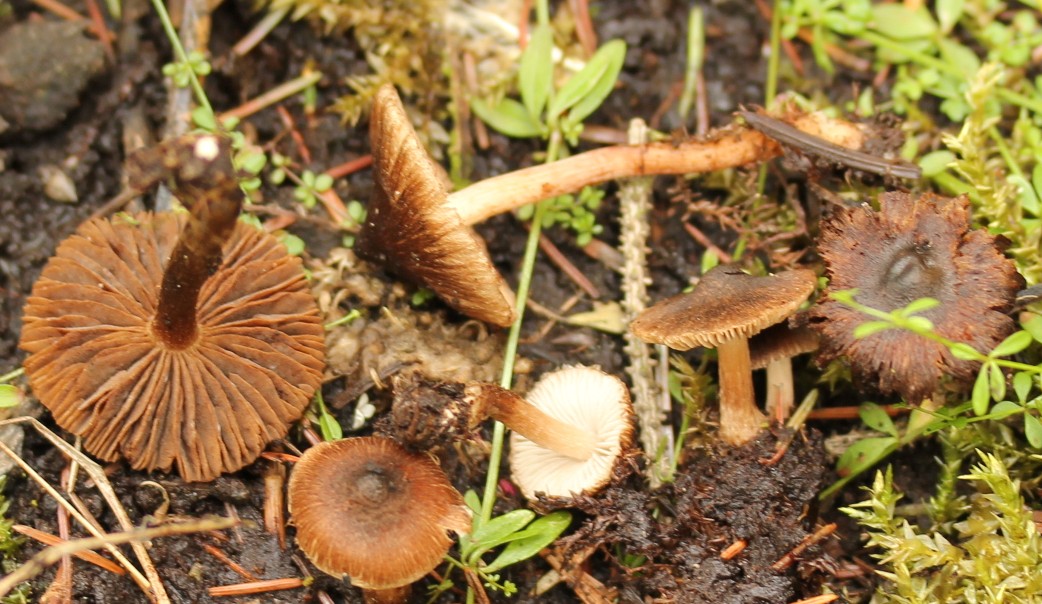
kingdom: Fungi
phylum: Basidiomycota
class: Agaricomycetes
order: Agaricales
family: Inocybaceae
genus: Inocybe
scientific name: Inocybe acuta
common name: papil-trævlhat
